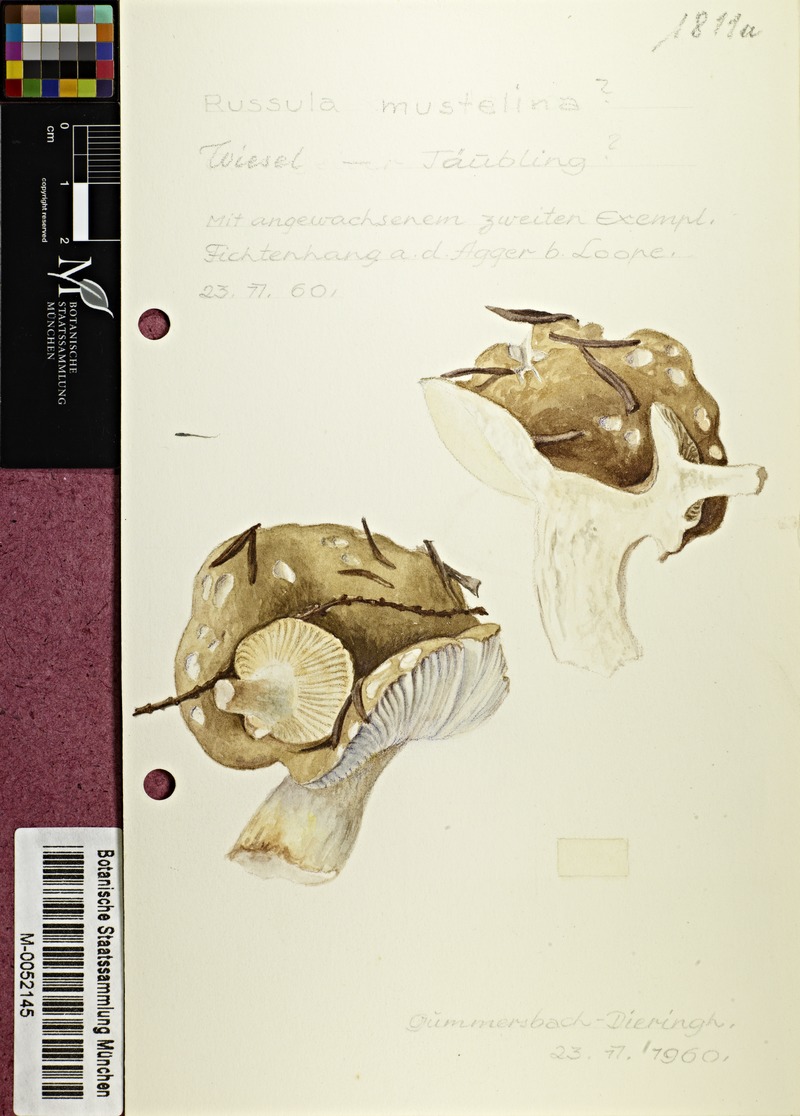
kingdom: Fungi
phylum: Basidiomycota
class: Agaricomycetes
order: Russulales
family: Russulaceae
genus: Russula
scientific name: Russula mustelina
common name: Russet brittlegill
